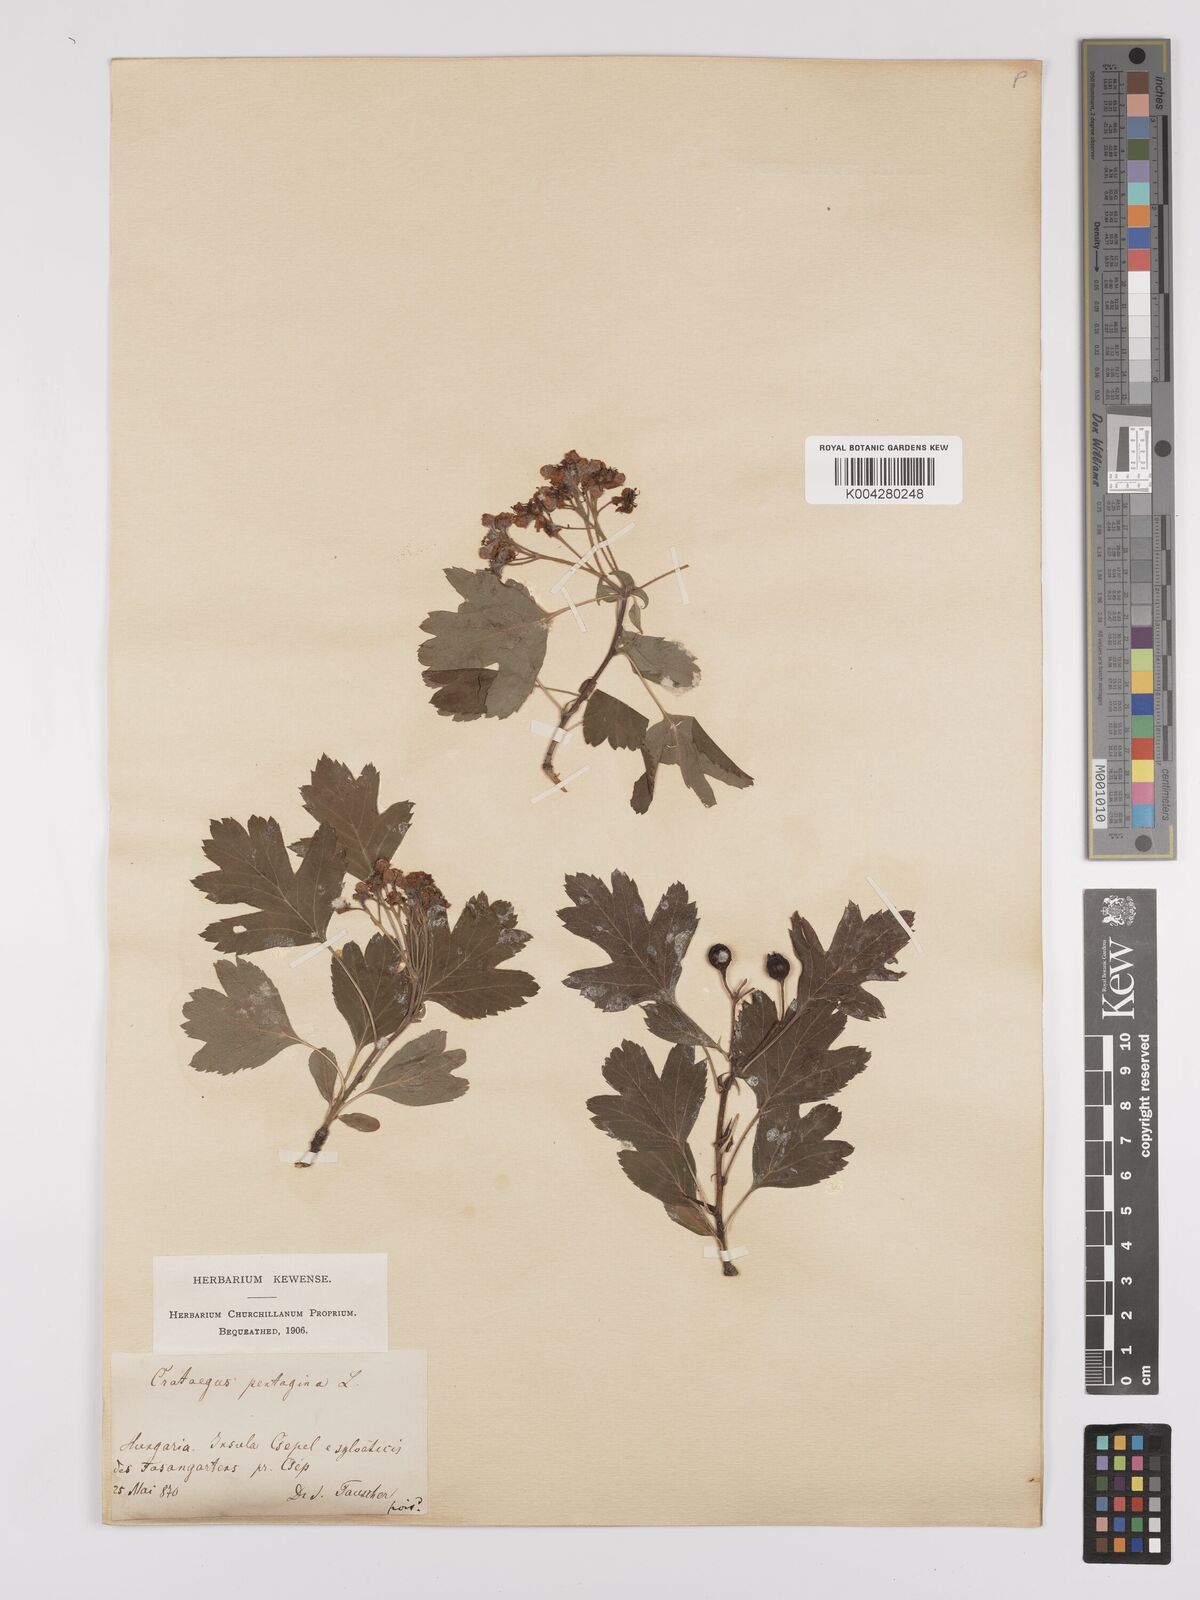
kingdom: Plantae
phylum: Tracheophyta
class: Magnoliopsida
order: Rosales
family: Rosaceae
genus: Crataegus
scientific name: Crataegus pentagyna
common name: Small-flowered black hawthorn
